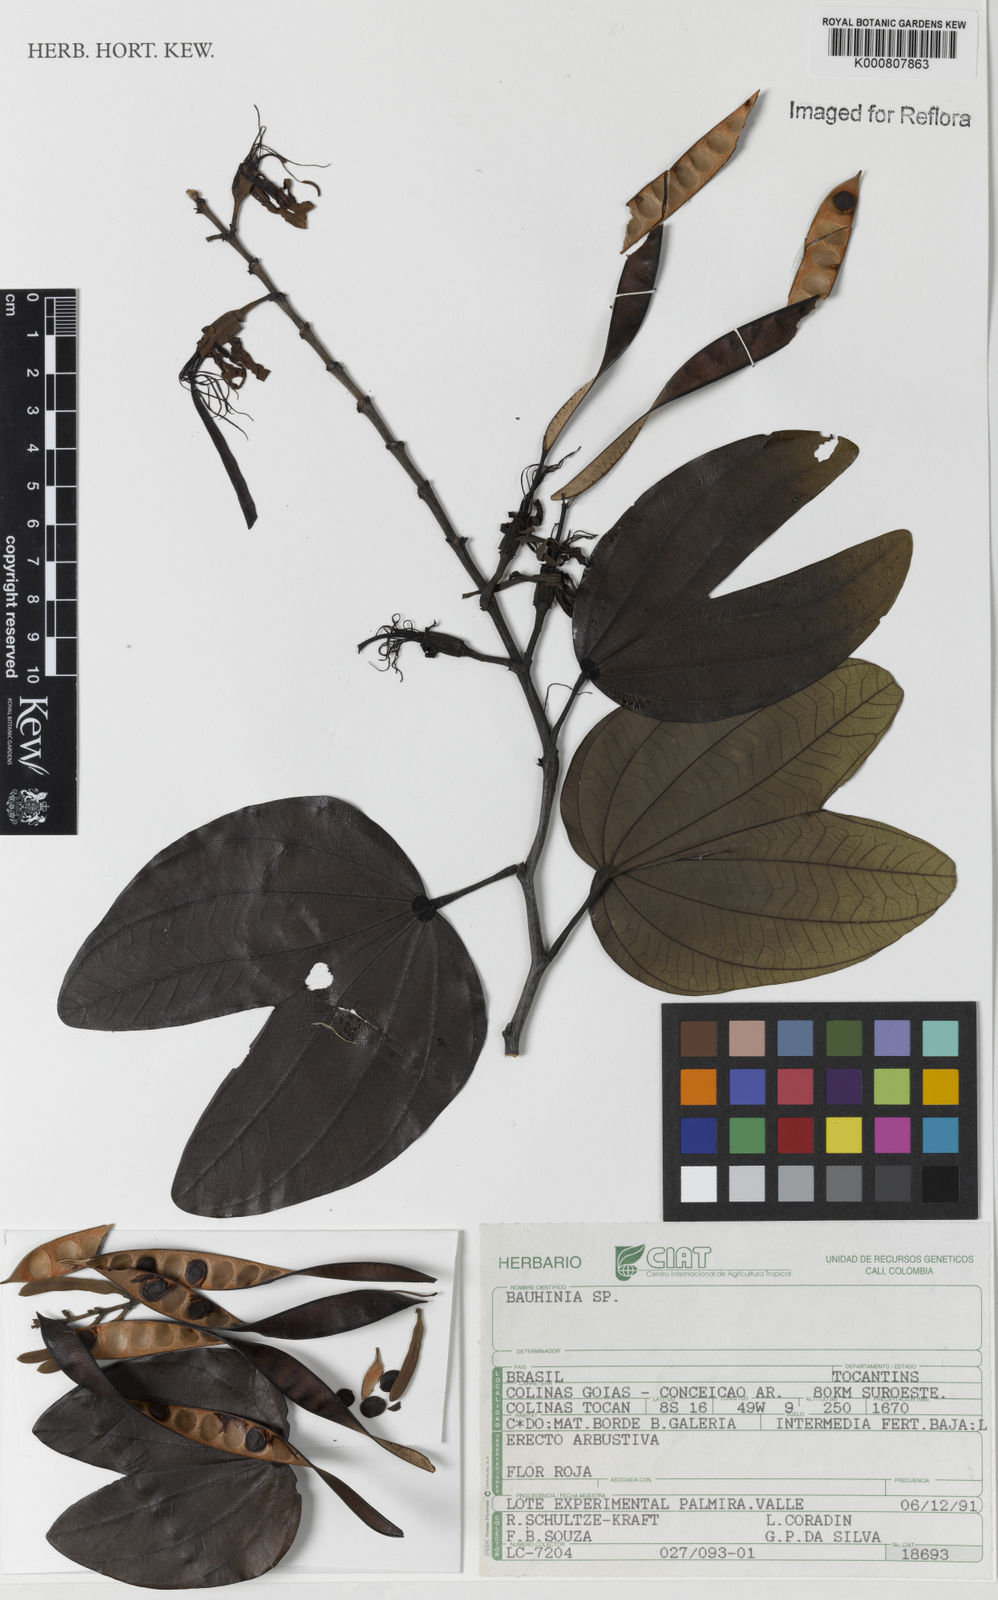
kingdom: Plantae
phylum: Tracheophyta
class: Magnoliopsida
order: Fabales
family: Fabaceae
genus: Bauhinia
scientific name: Bauhinia
